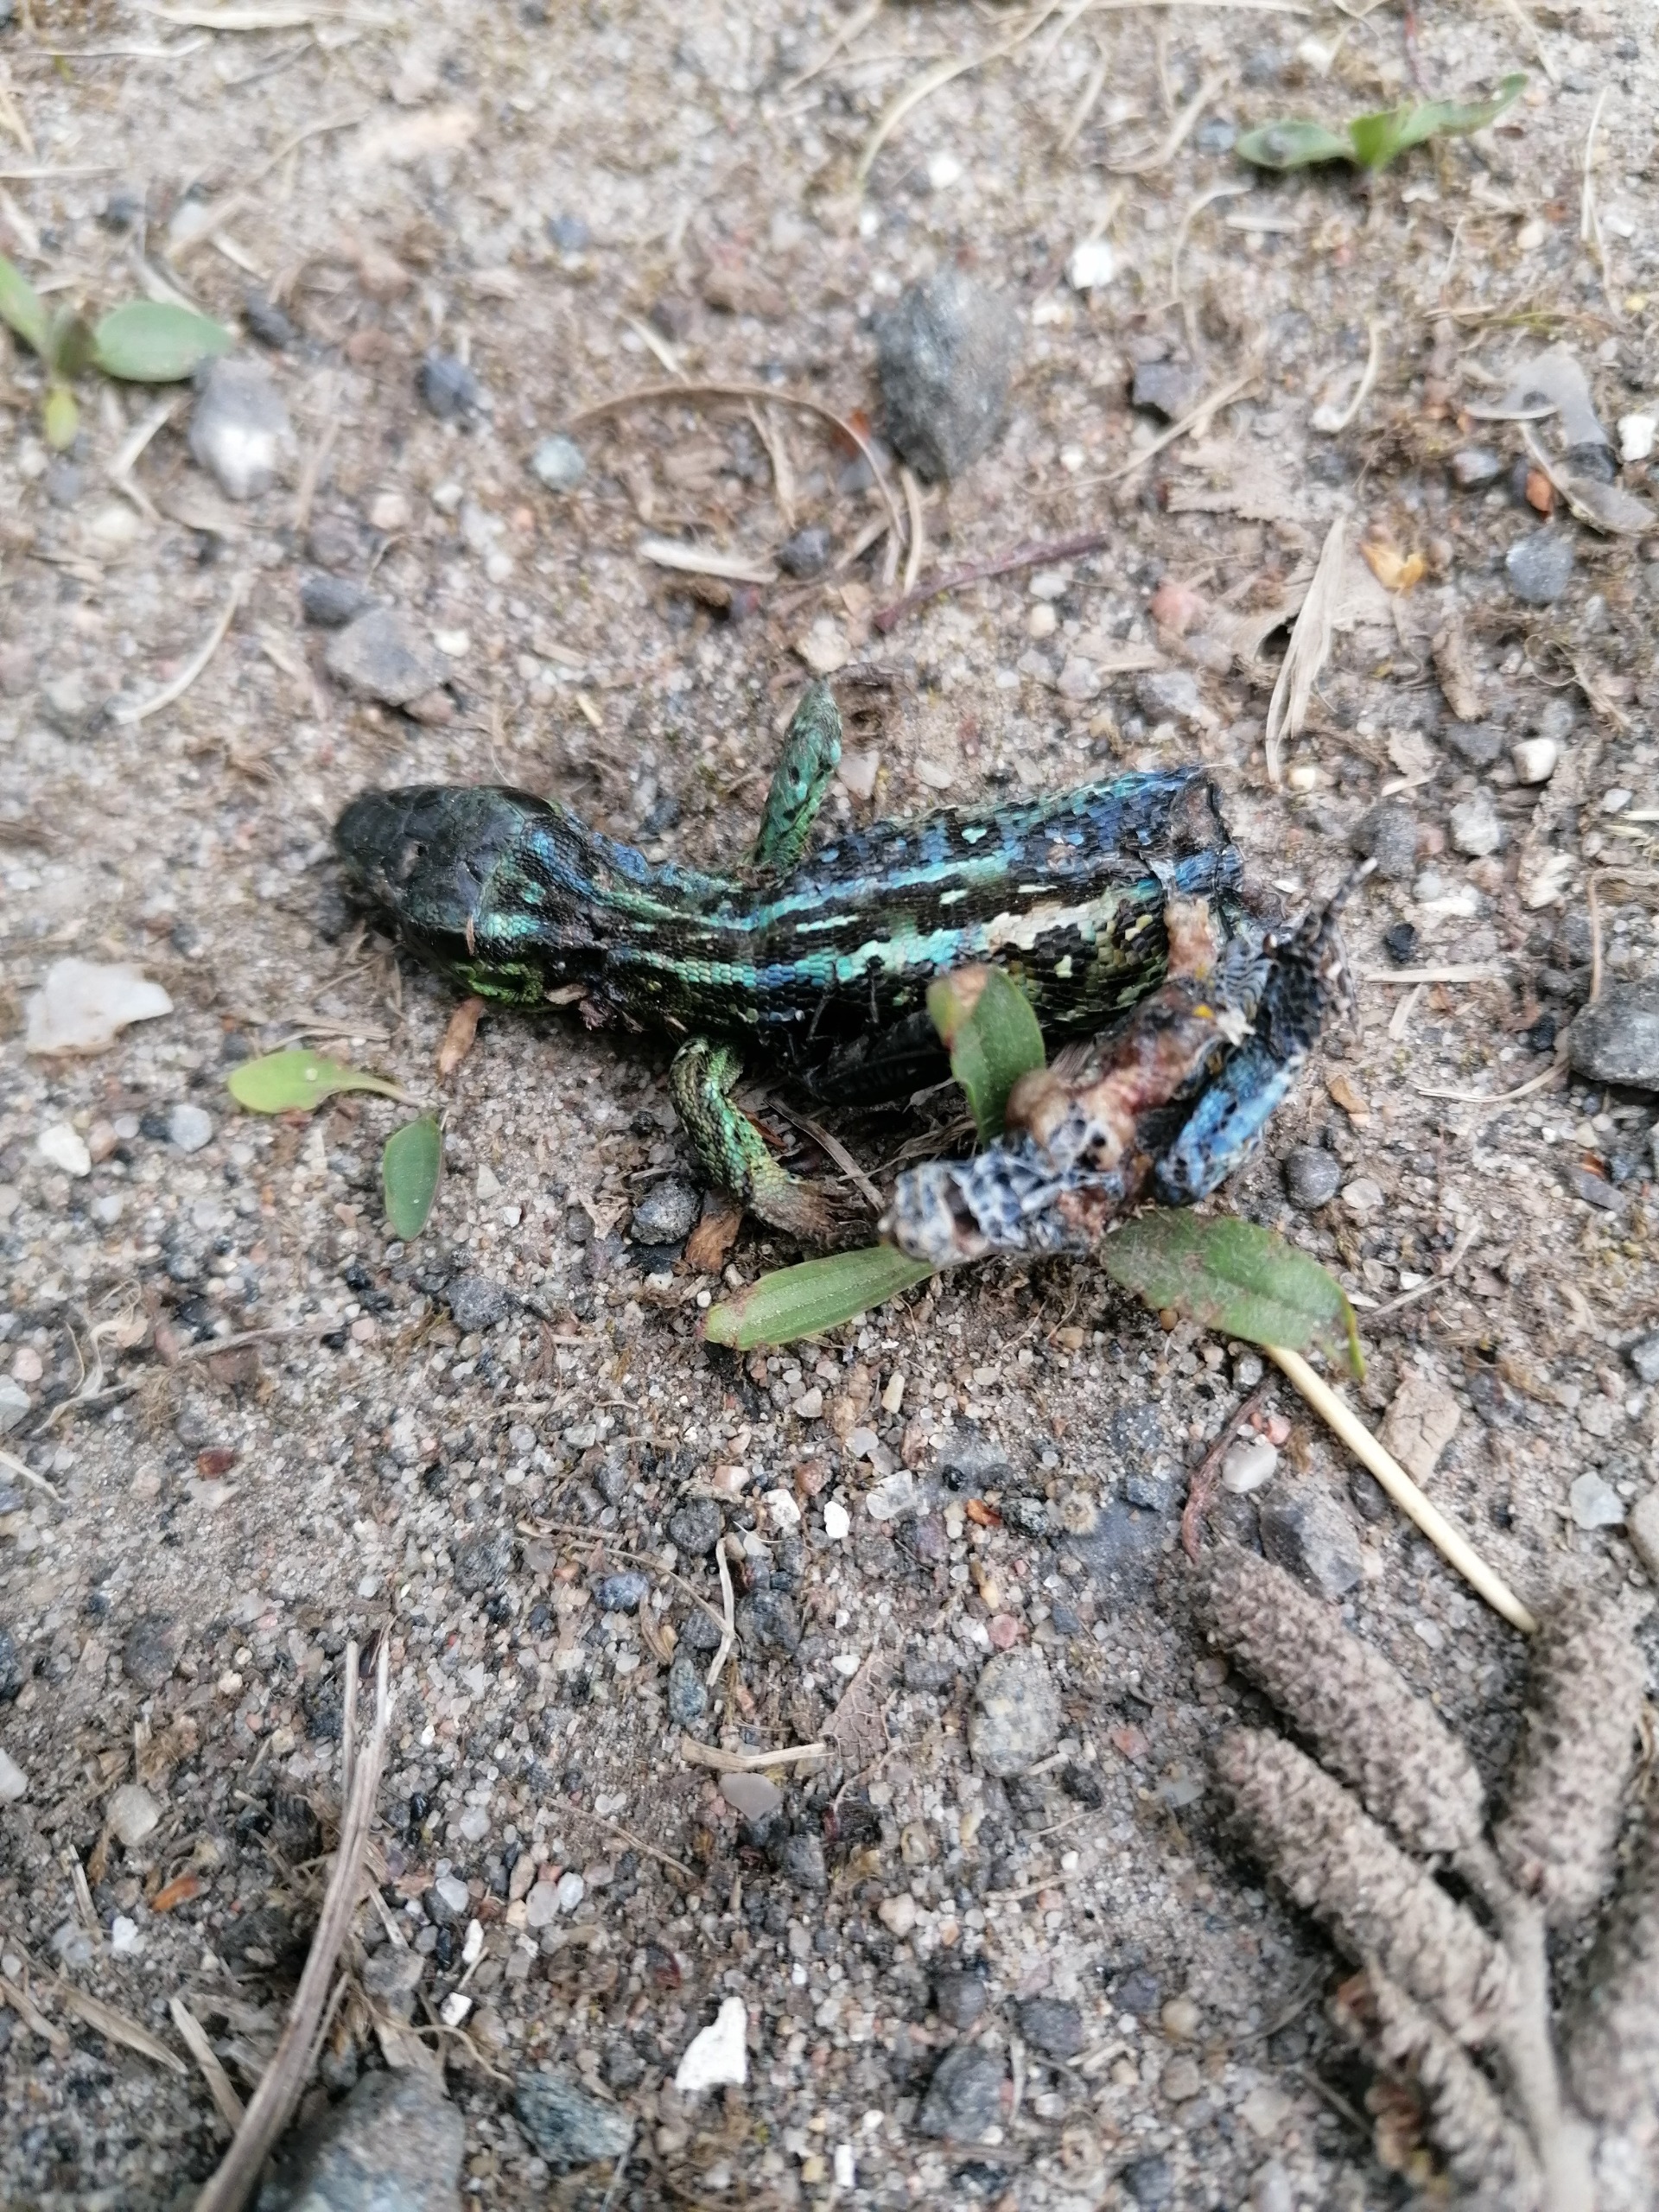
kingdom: Animalia
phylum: Chordata
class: Squamata
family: Lacertidae
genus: Lacerta
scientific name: Lacerta agilis
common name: Markfirben
